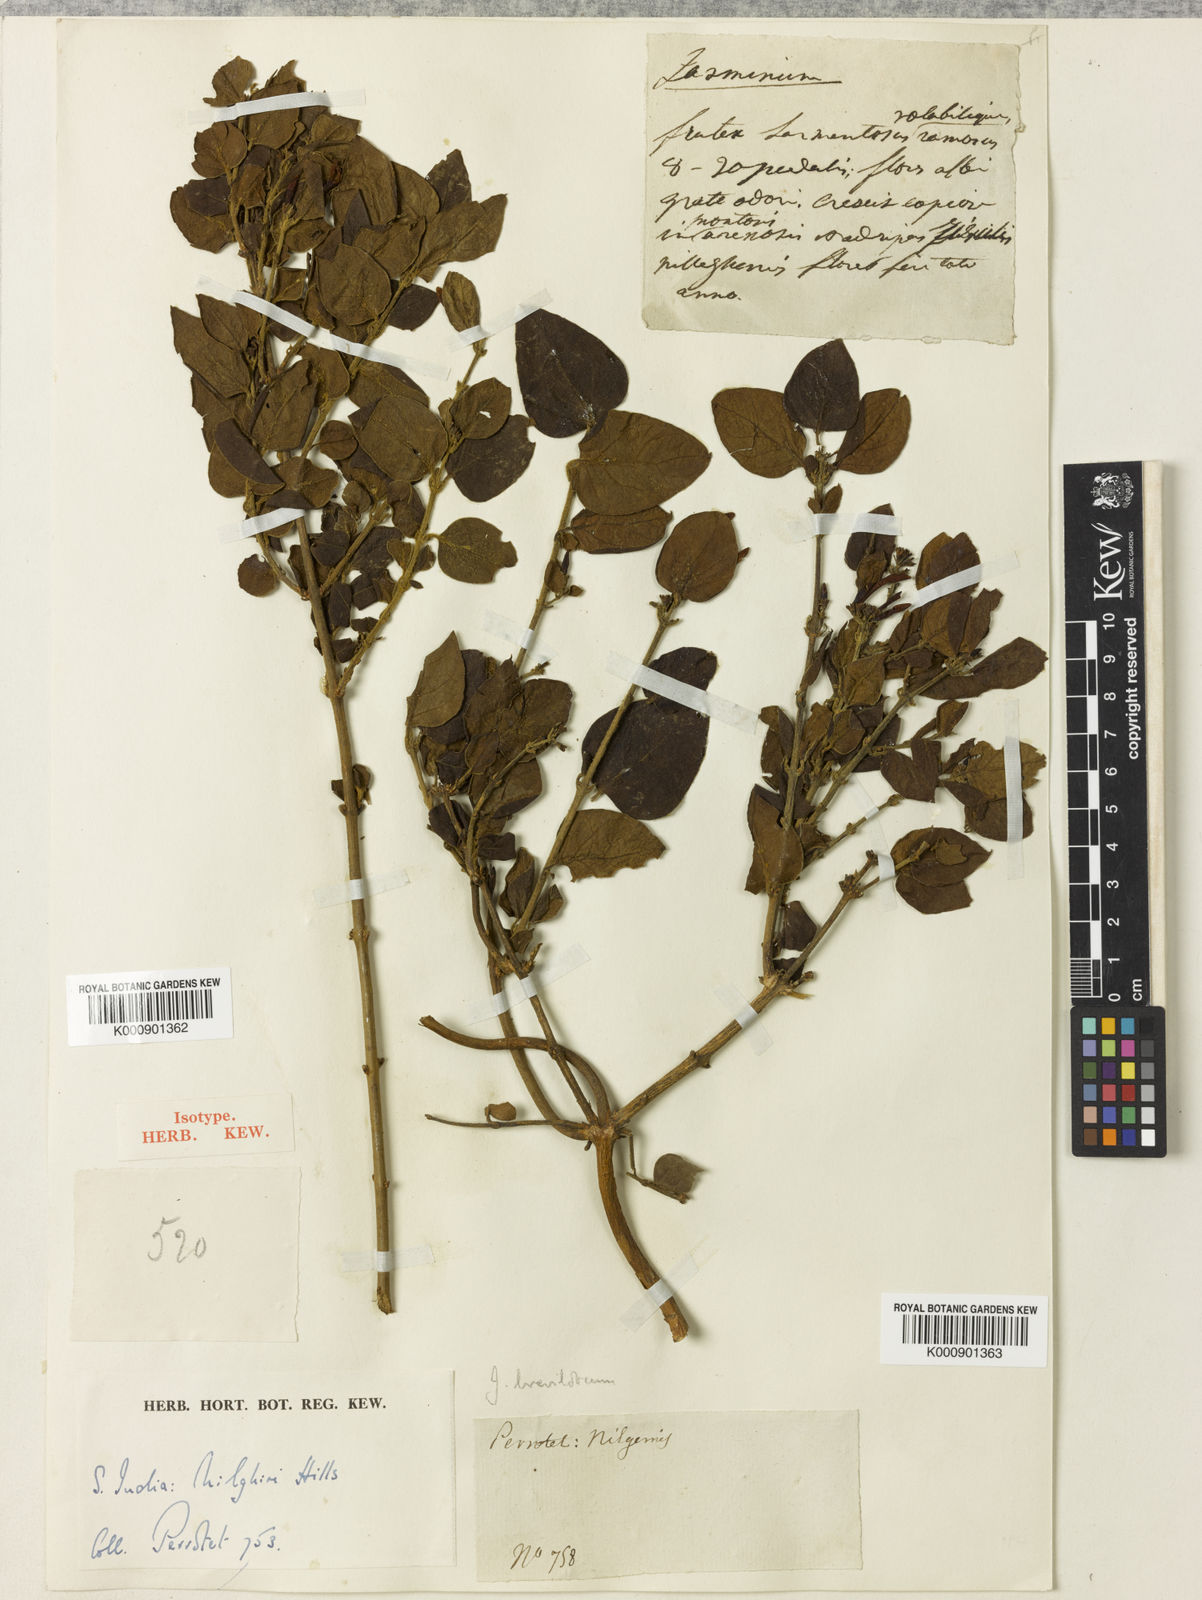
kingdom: Plantae
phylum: Tracheophyta
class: Magnoliopsida
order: Lamiales
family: Oleaceae
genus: Jasminum
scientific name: Jasminum brevilobum
